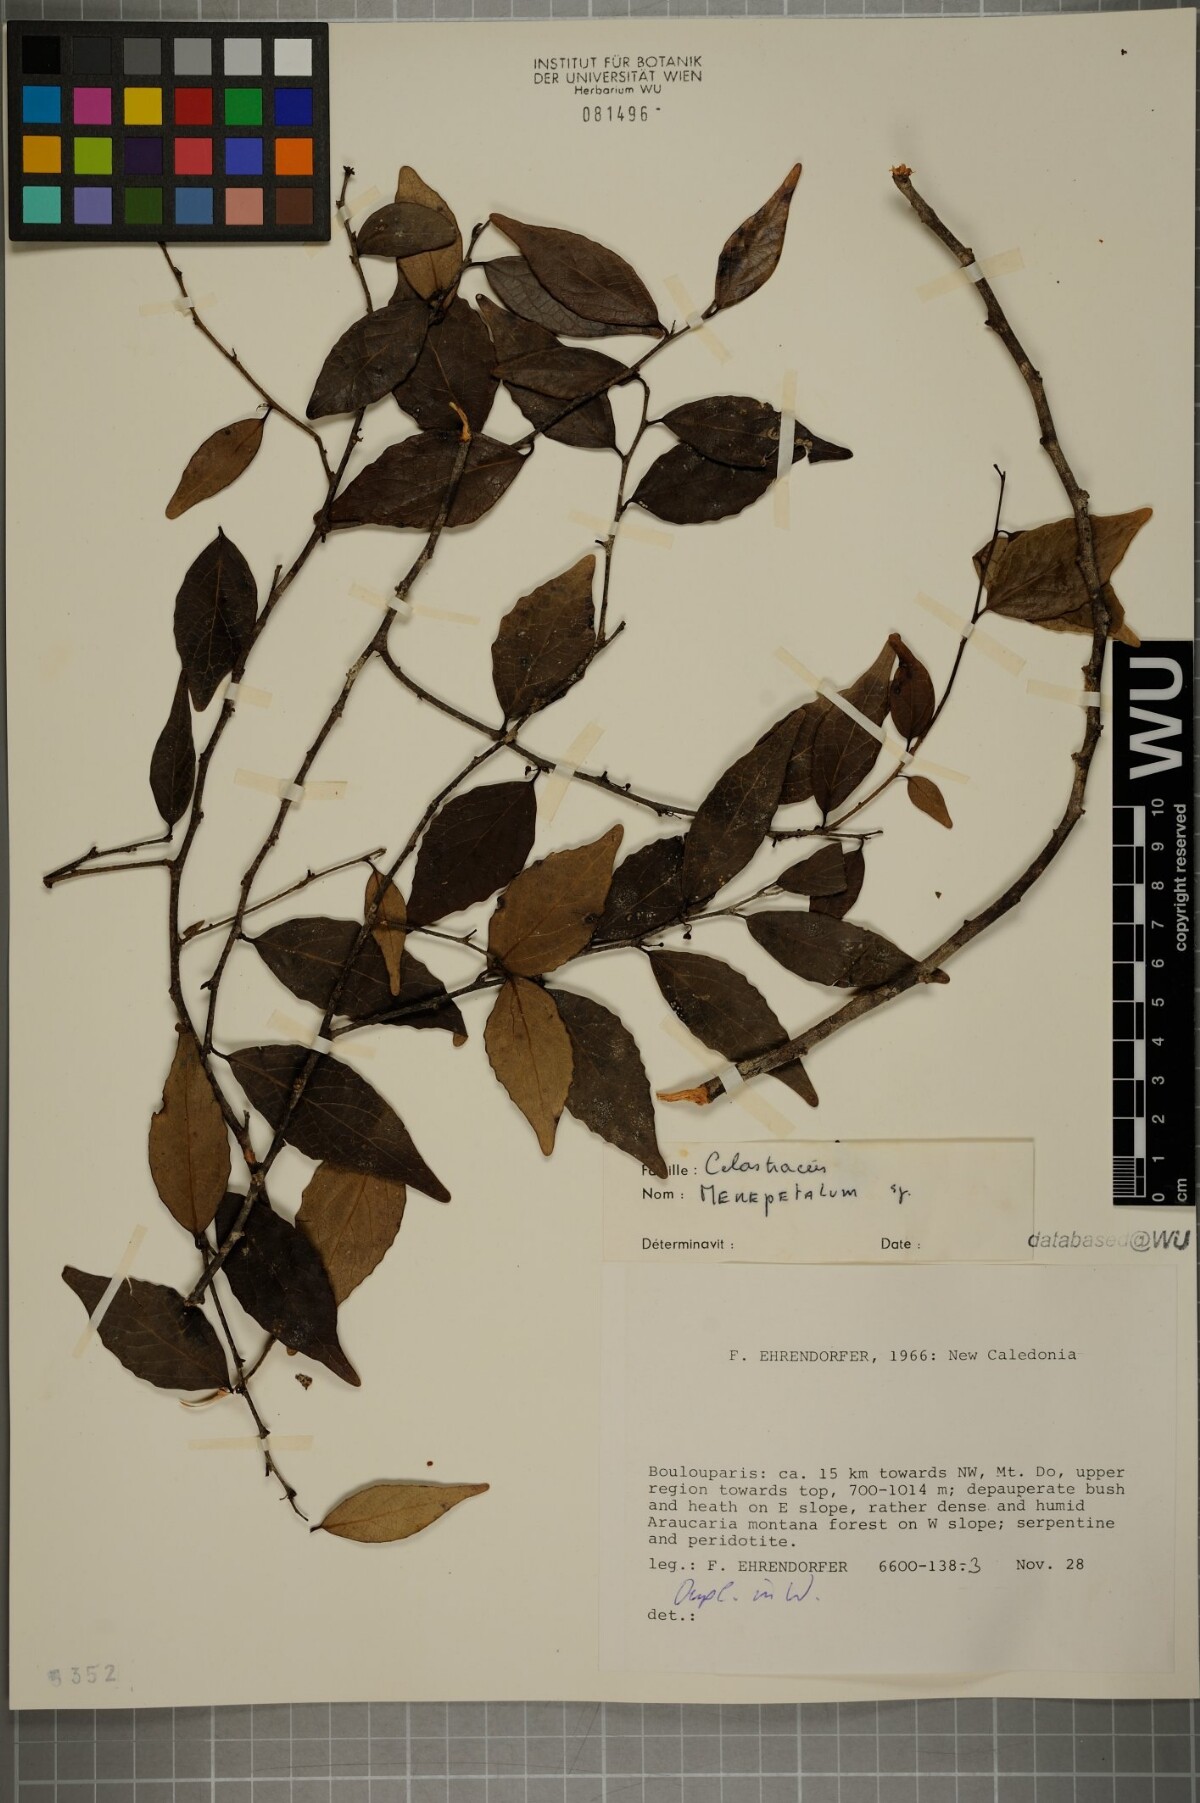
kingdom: Plantae
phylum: Tracheophyta
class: Magnoliopsida
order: Celastrales
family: Celastraceae
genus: Menepetalum
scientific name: Menepetalum
